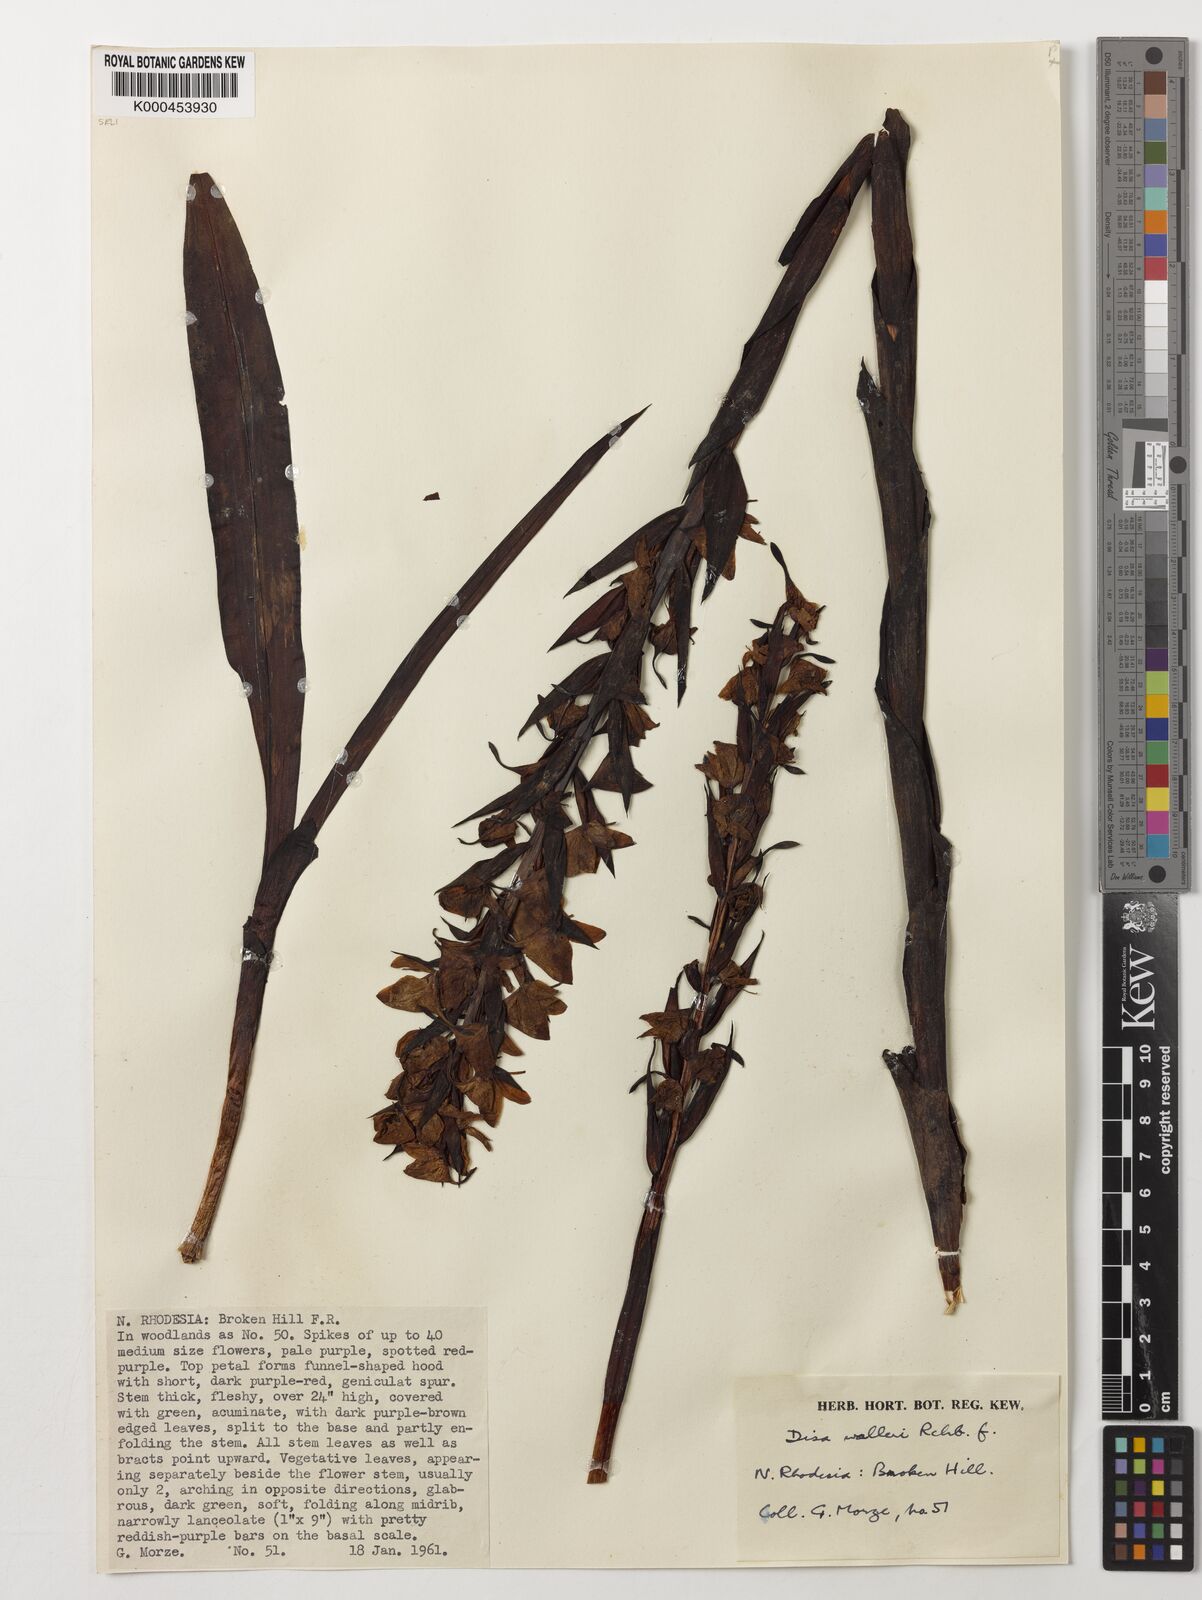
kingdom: Plantae
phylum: Tracheophyta
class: Liliopsida
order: Asparagales
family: Orchidaceae
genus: Disa
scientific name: Disa walleri
